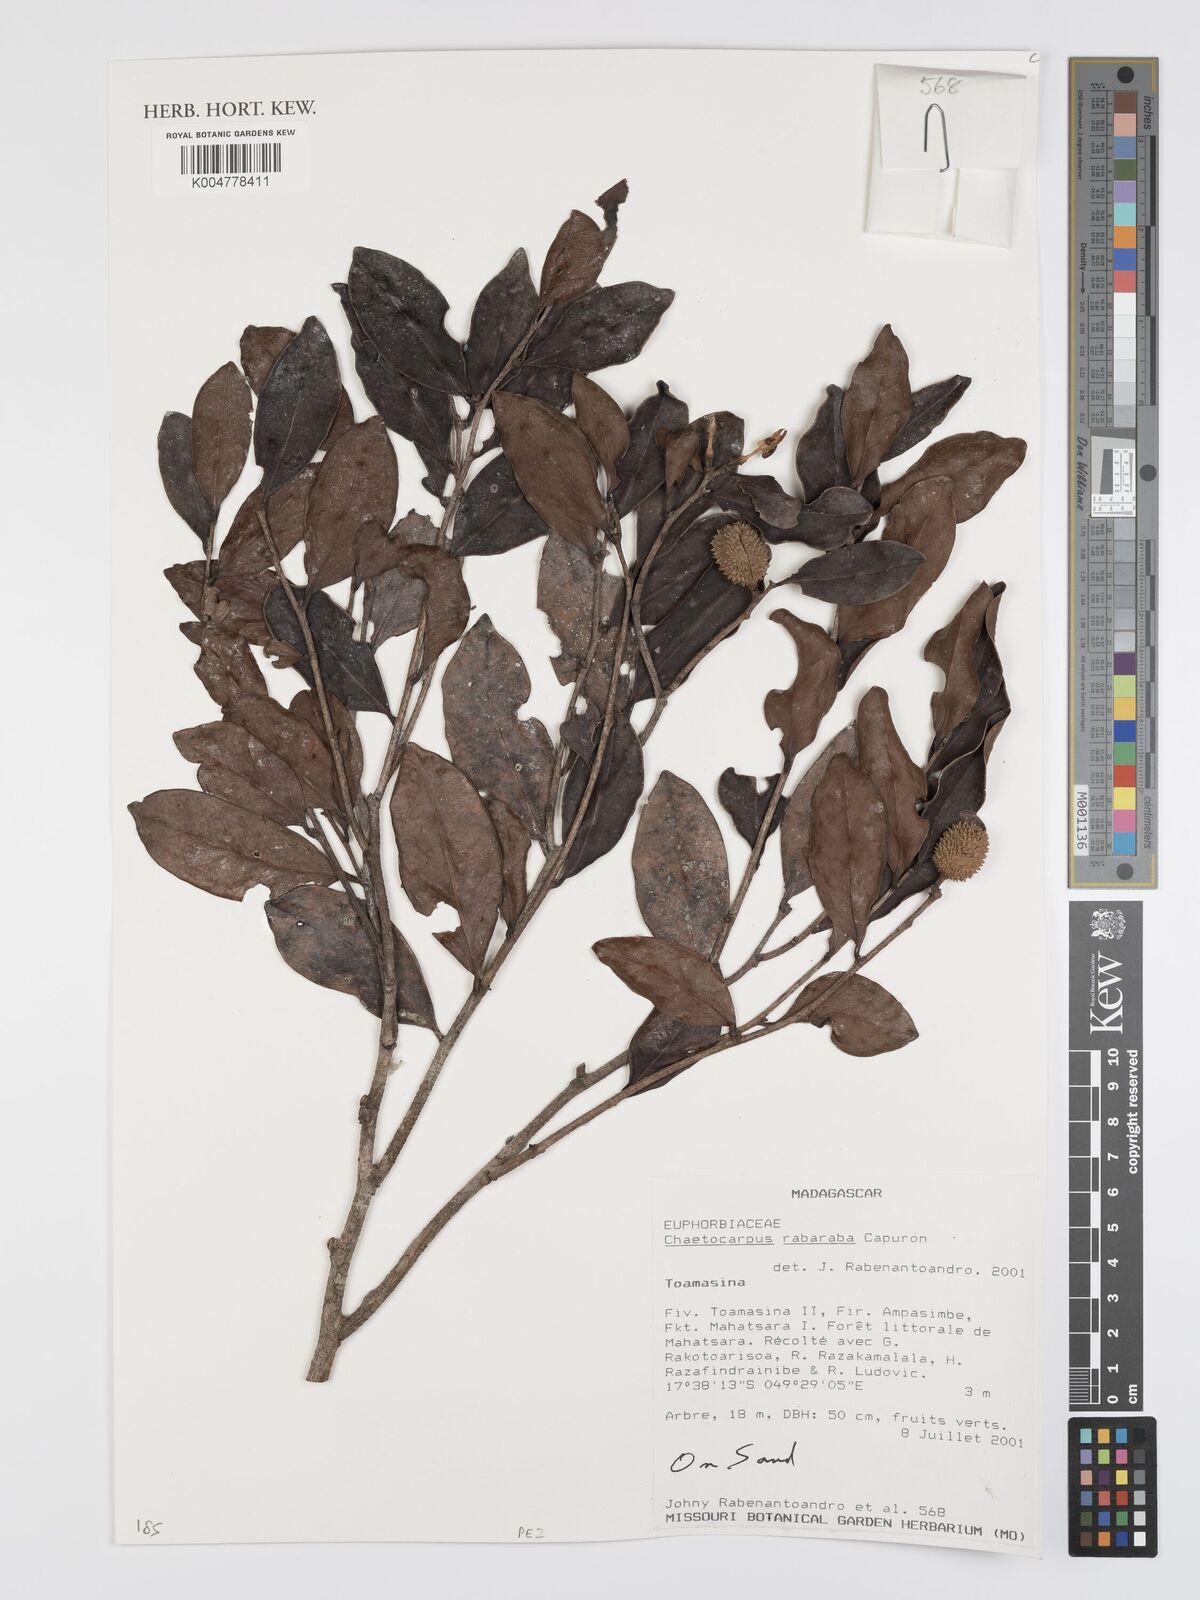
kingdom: Plantae
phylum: Tracheophyta
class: Magnoliopsida
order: Malpighiales
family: Peraceae
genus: Chaetocarpus
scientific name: Chaetocarpus rabaraba
